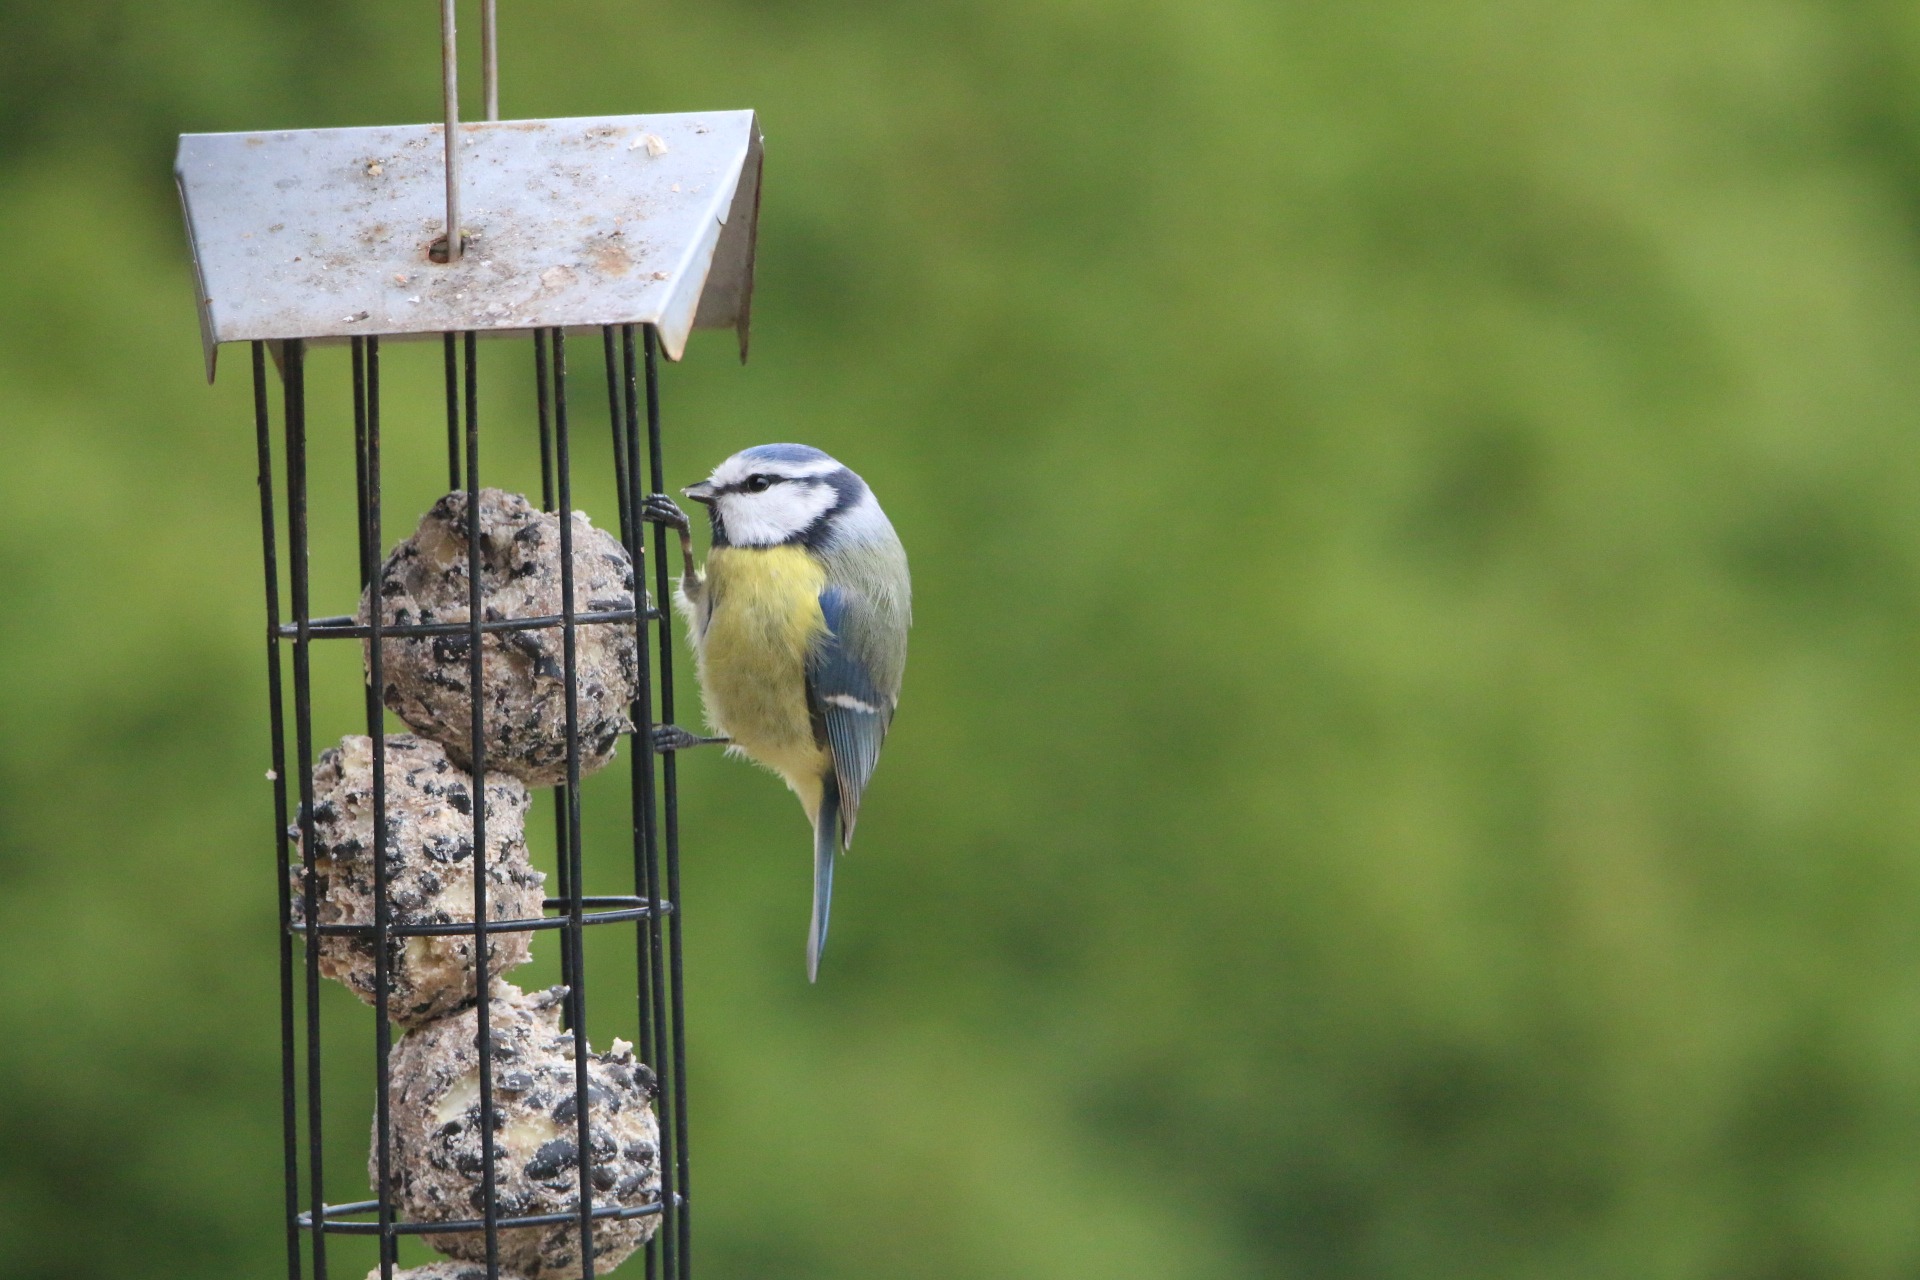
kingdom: Animalia
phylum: Chordata
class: Aves
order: Passeriformes
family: Paridae
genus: Cyanistes
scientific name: Cyanistes caeruleus
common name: Blåmejse
